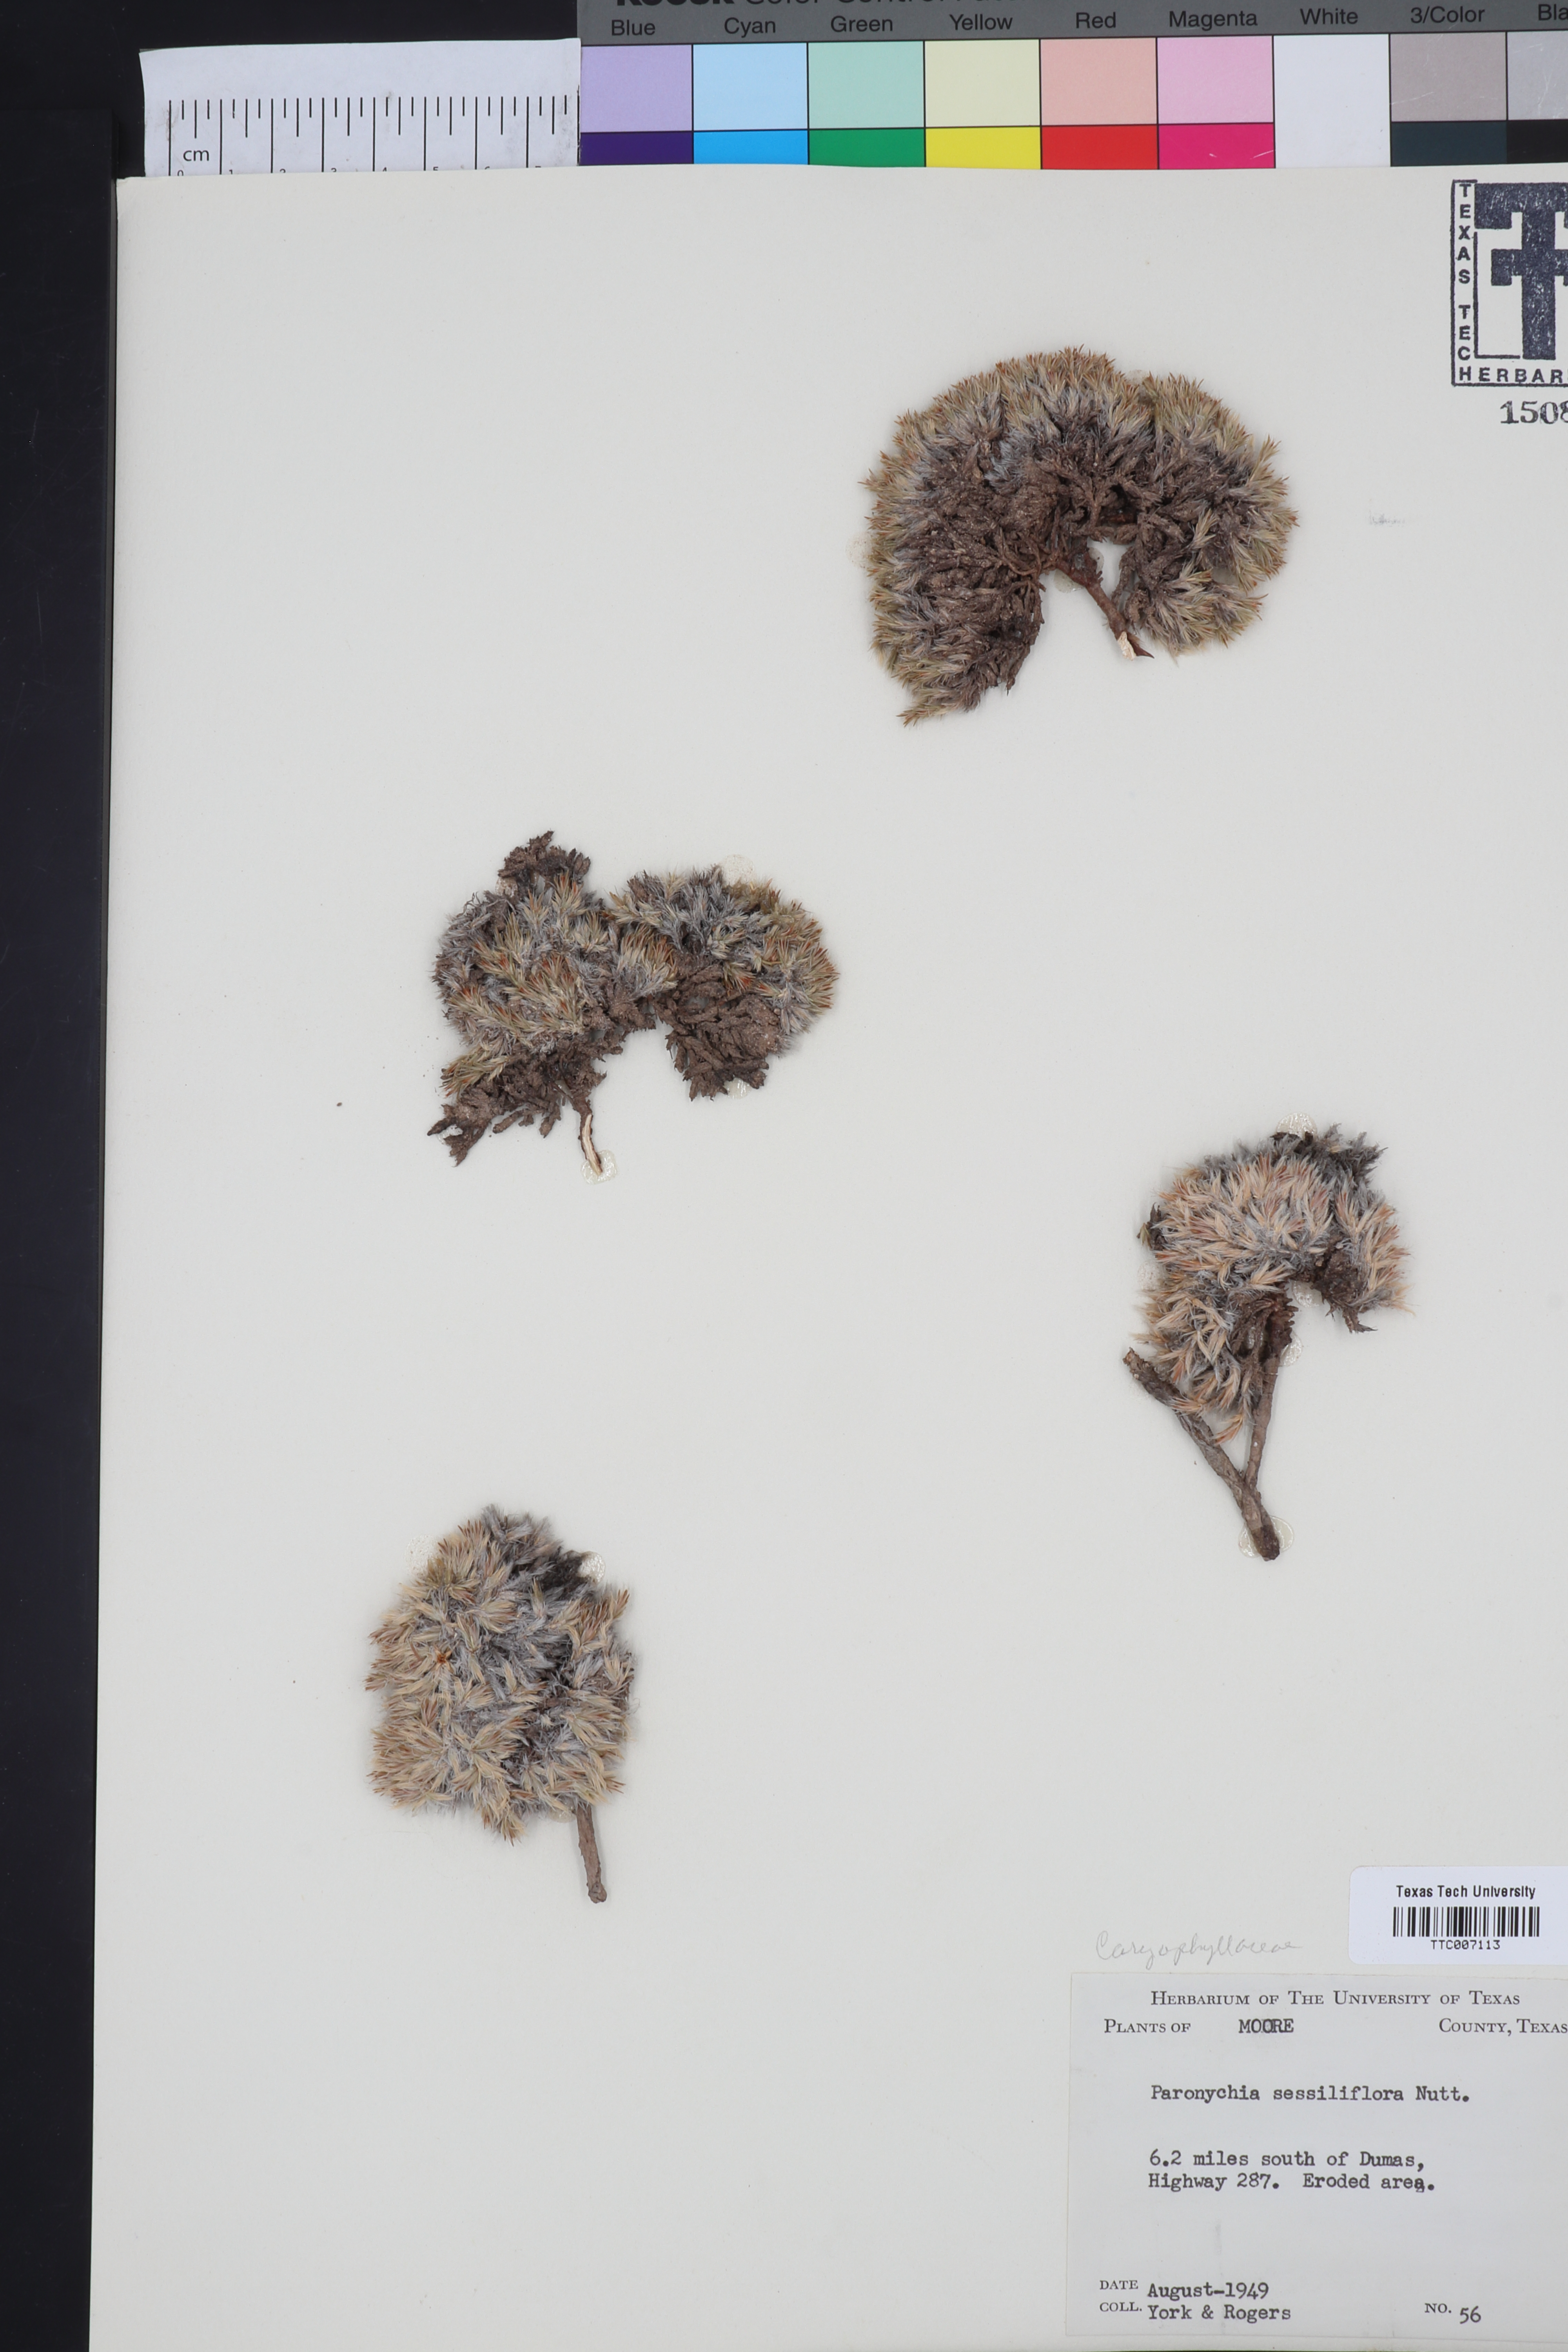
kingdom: Plantae
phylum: Tracheophyta
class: Magnoliopsida
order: Caryophyllales
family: Caryophyllaceae
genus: Paronychia
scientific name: Paronychia sessiliflora
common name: Creeping nailwort
